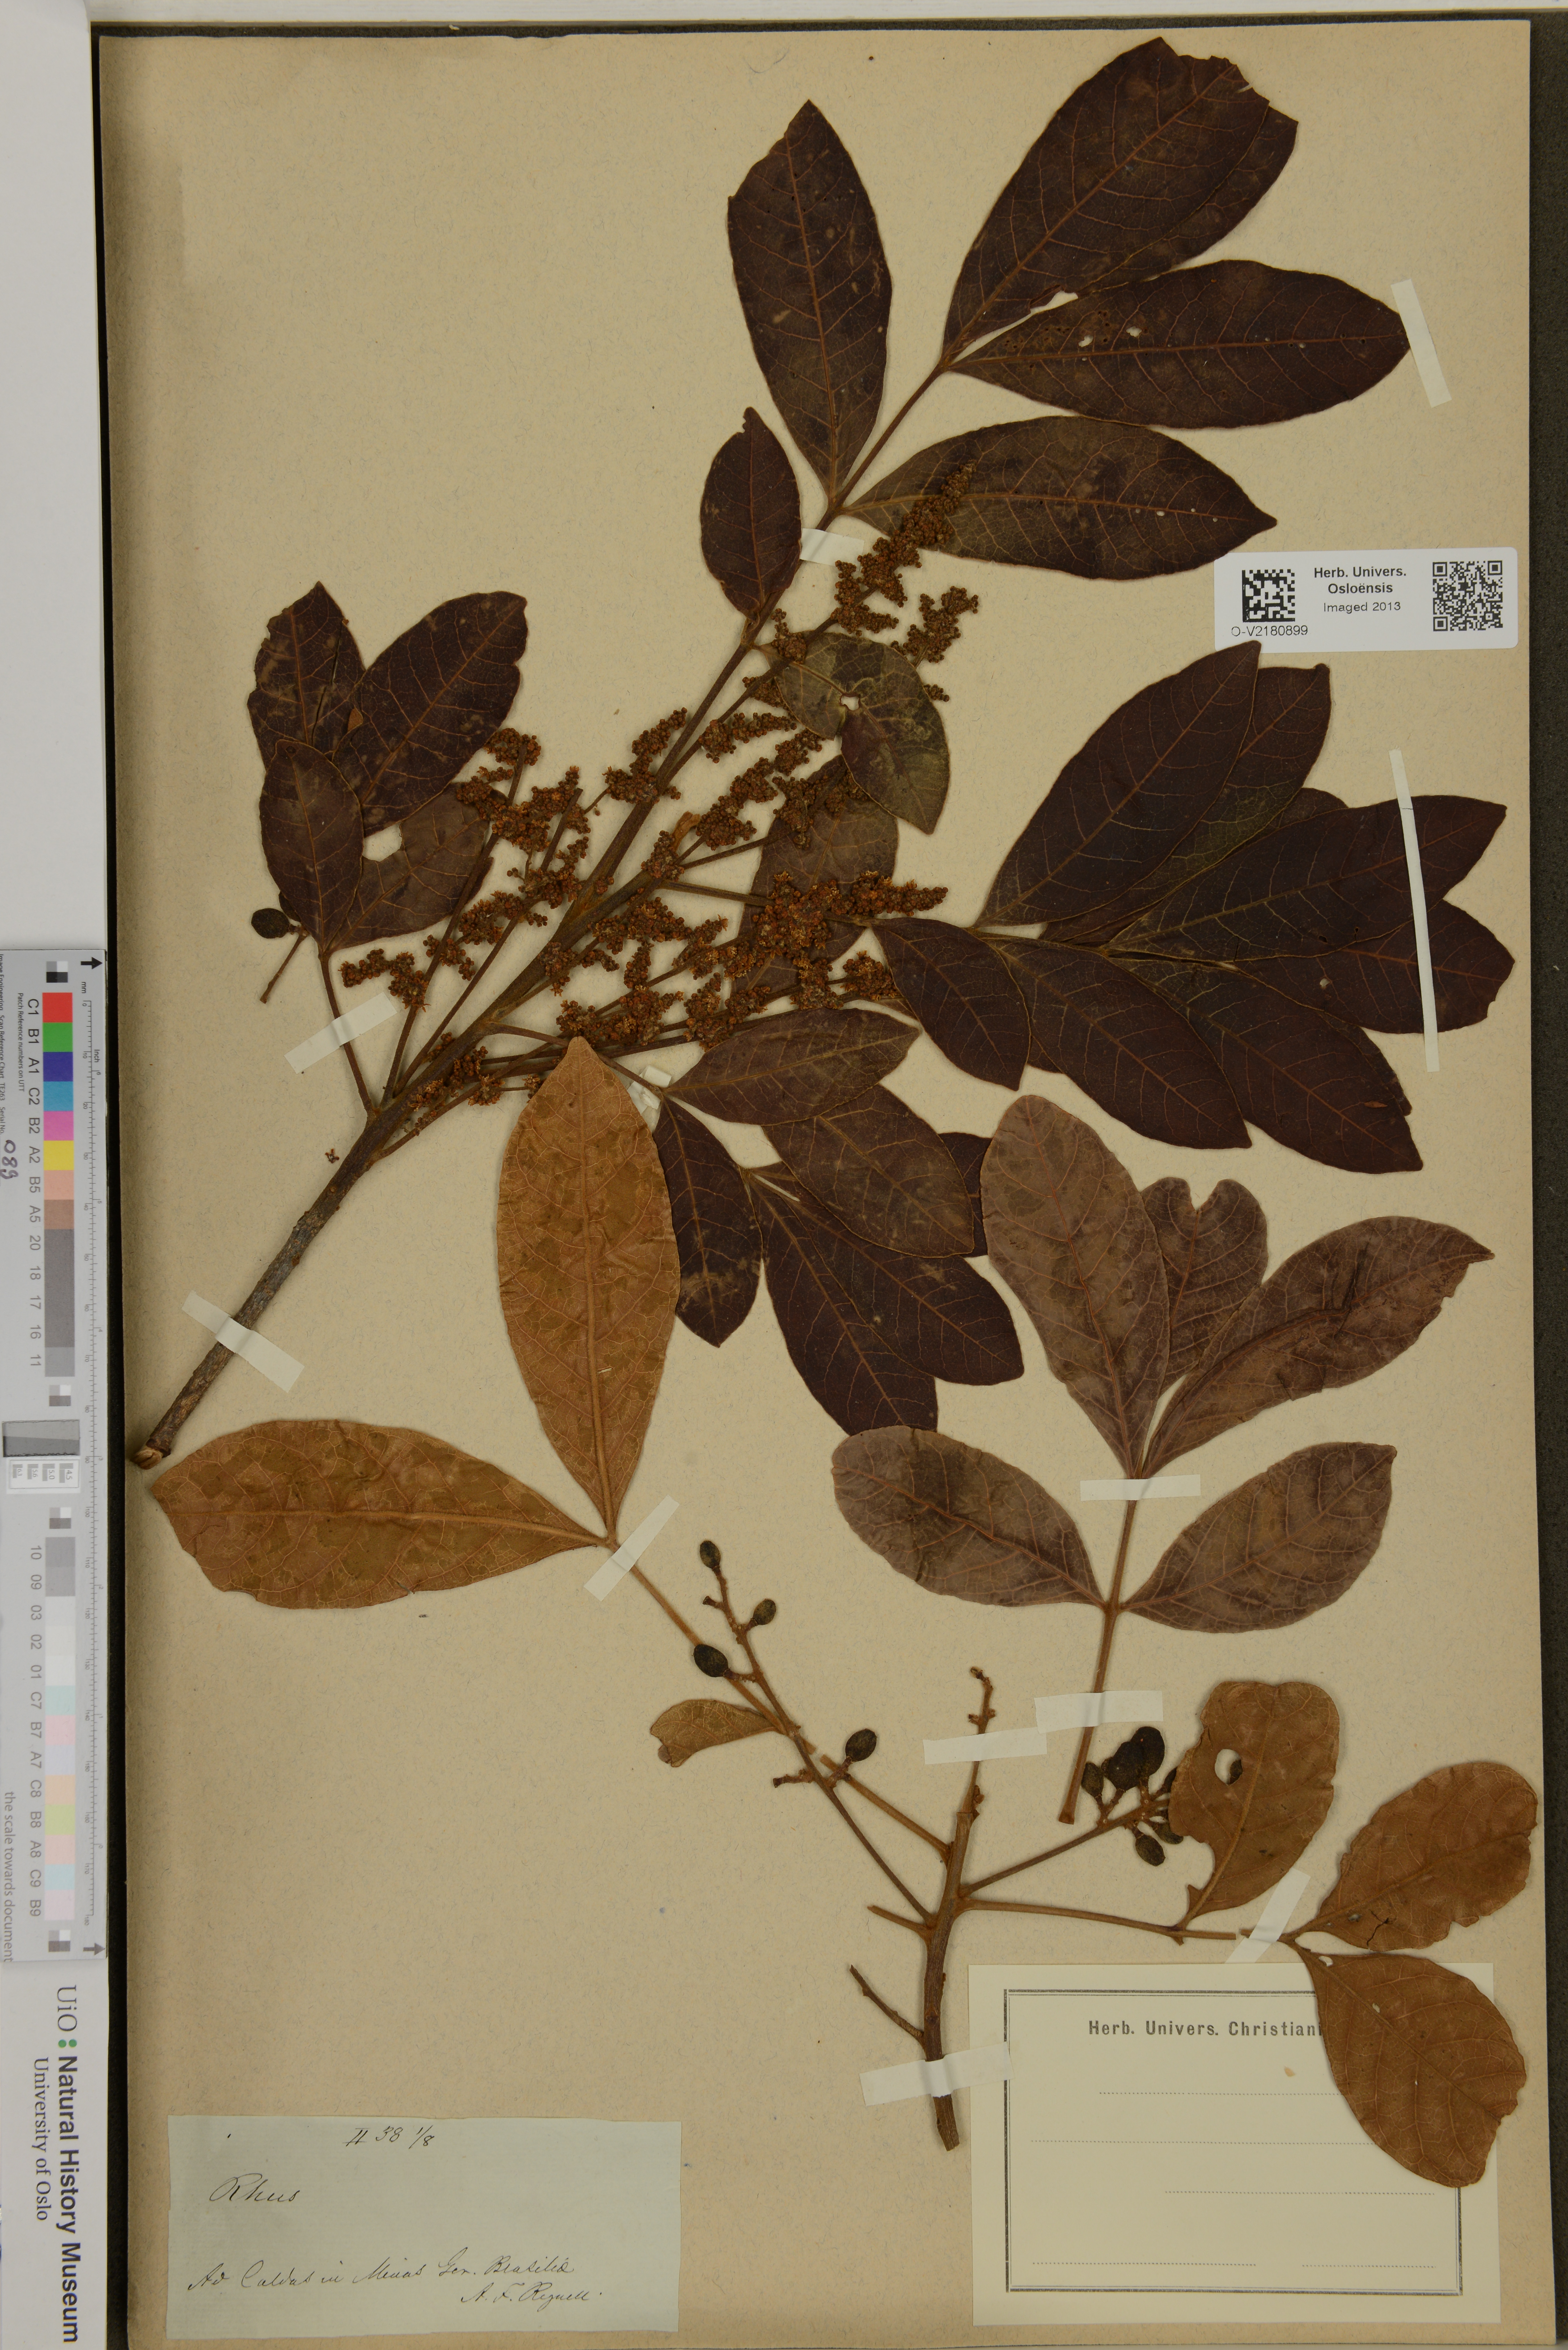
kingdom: Plantae
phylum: Tracheophyta
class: Magnoliopsida
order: Sapindales
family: Anacardiaceae
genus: Rhus
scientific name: Rhus
